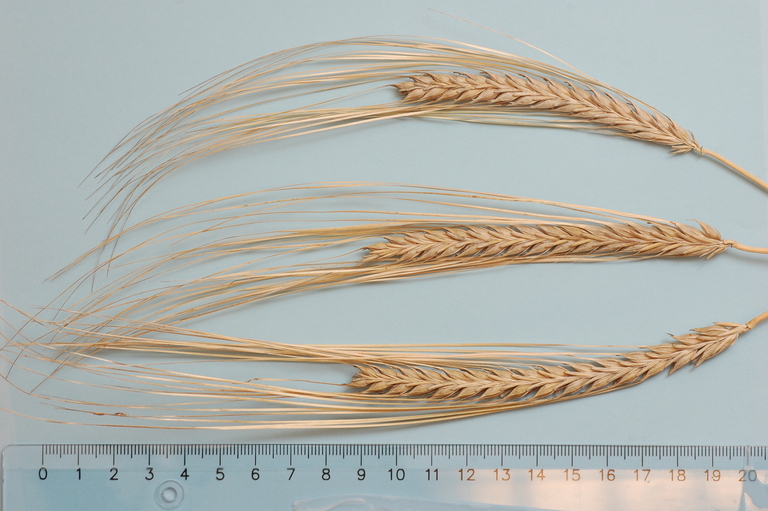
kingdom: Plantae
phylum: Tracheophyta
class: Liliopsida
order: Poales
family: Poaceae
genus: Hordeum
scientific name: Hordeum vulgare
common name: Common barley
